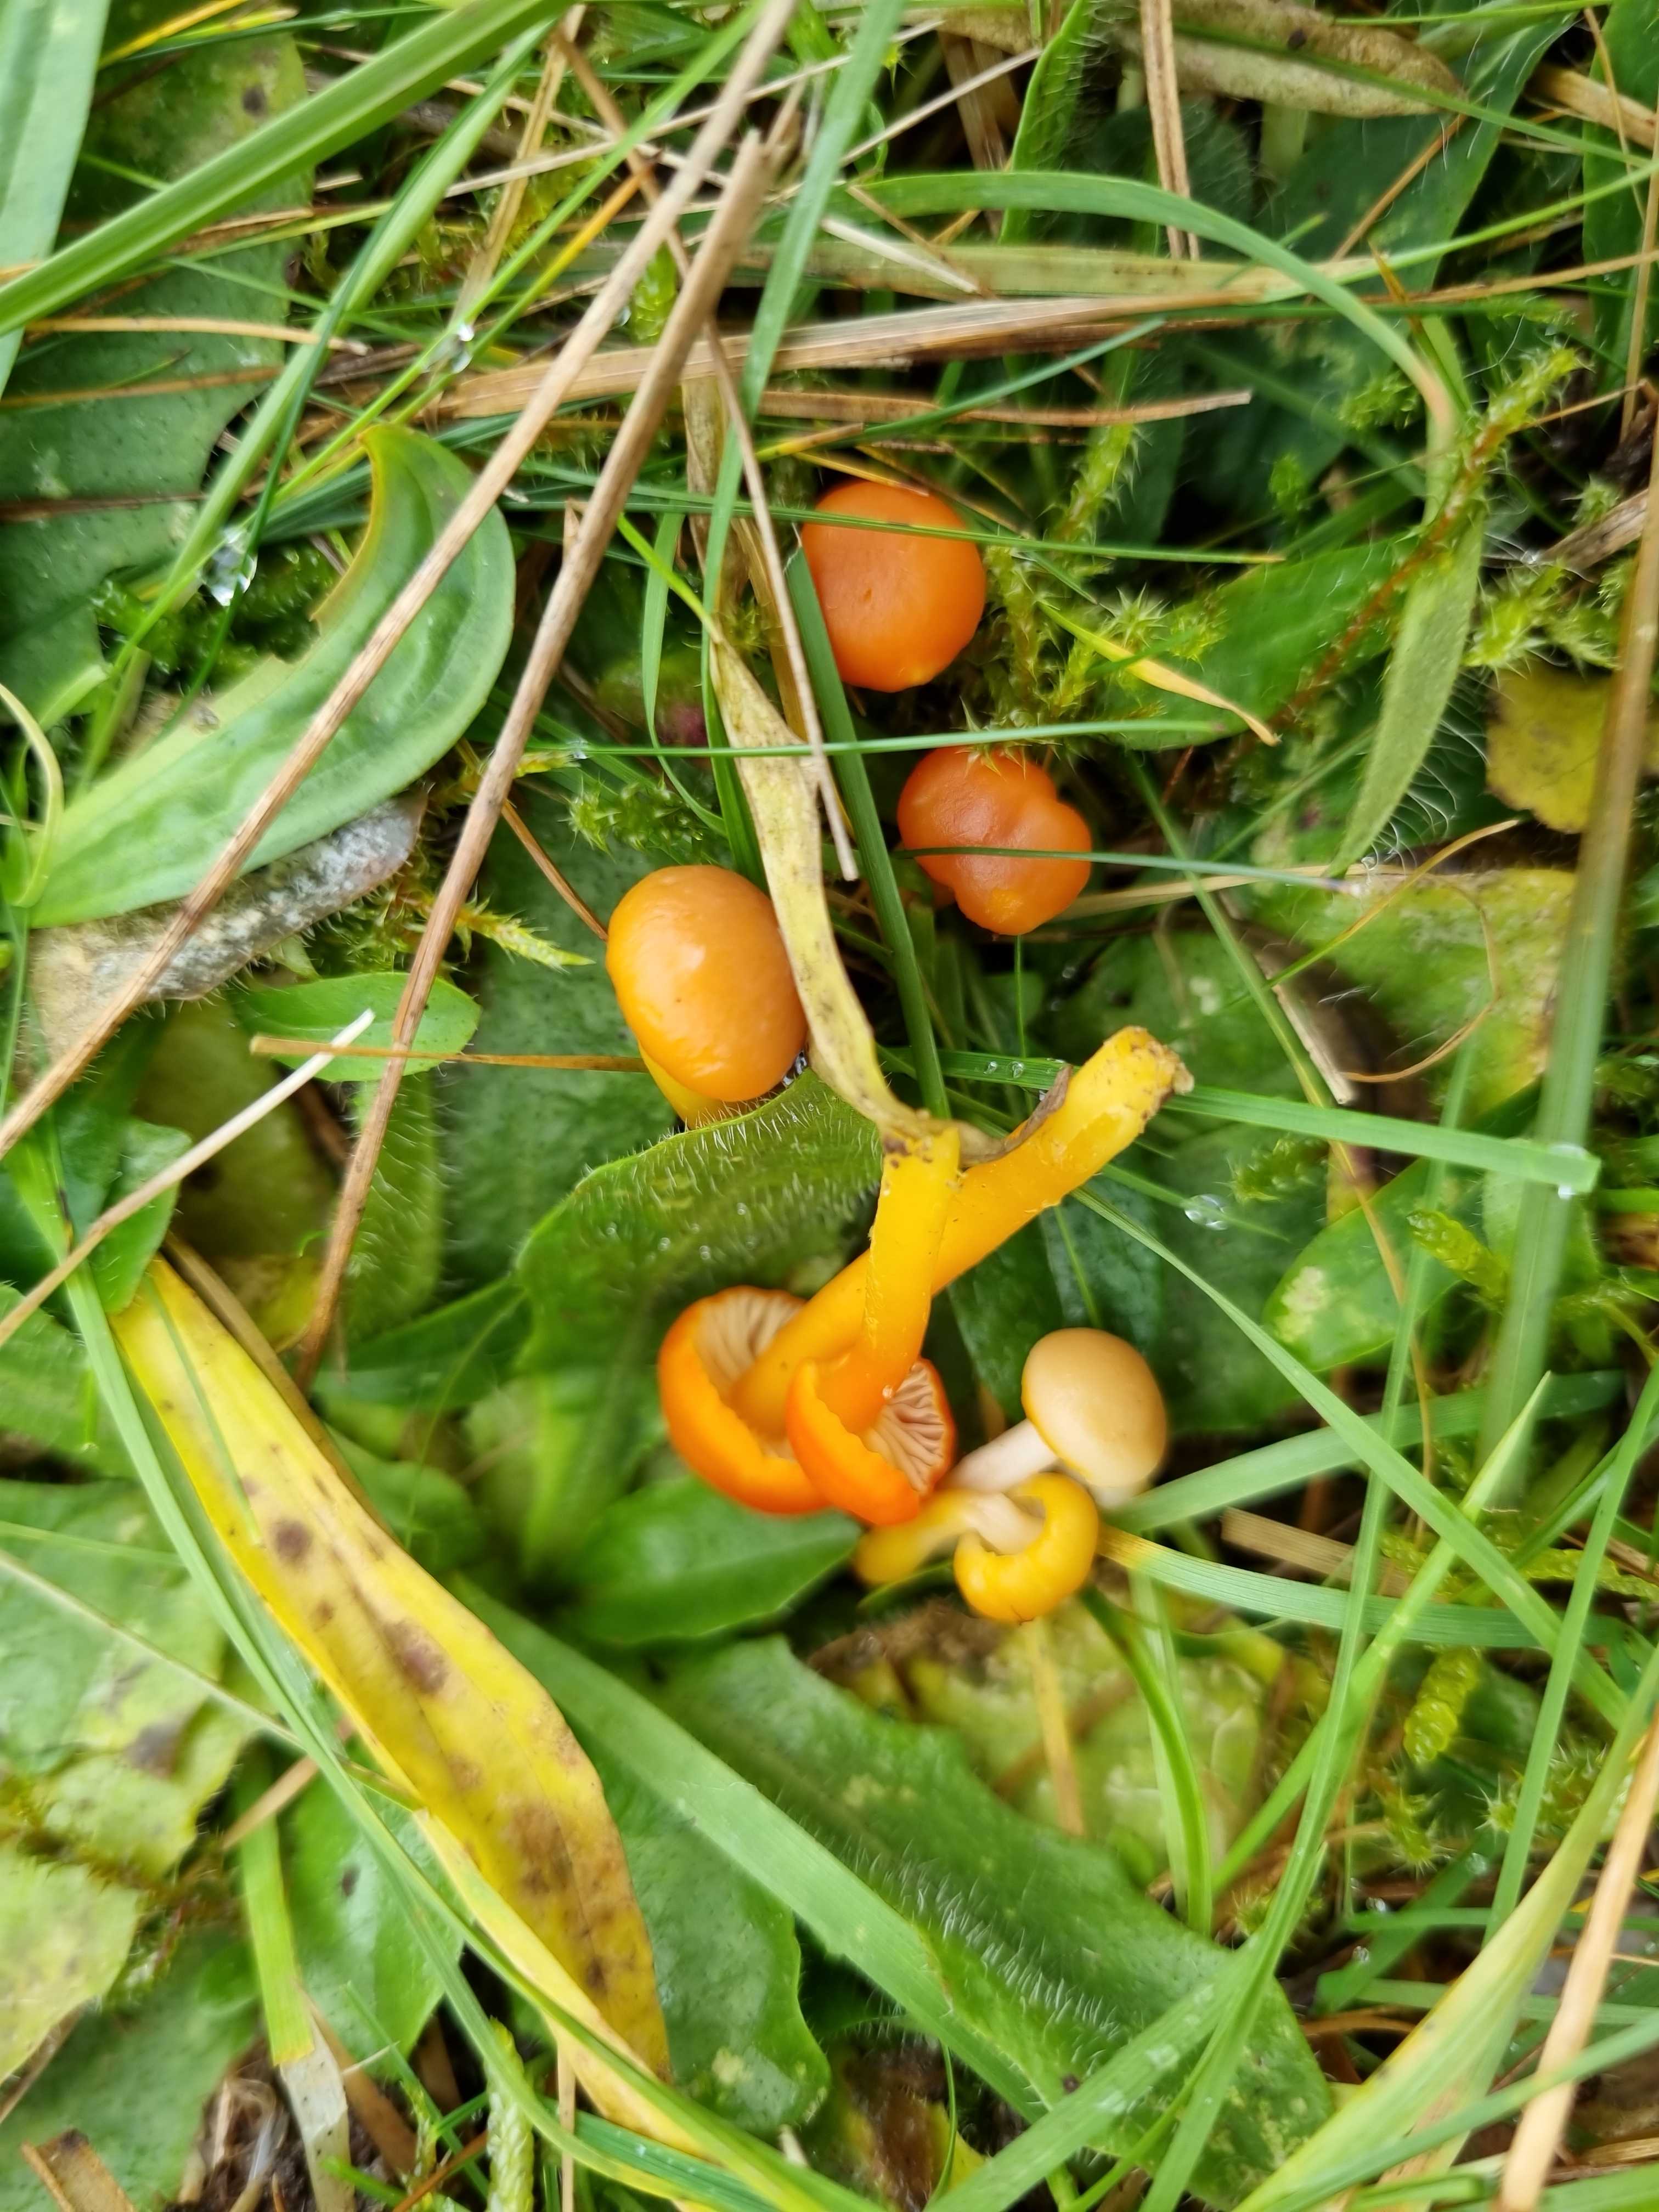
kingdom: Fungi
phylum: Basidiomycota
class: Agaricomycetes
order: Agaricales
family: Hygrophoraceae
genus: Hygrocybe
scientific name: Hygrocybe reidii
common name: honning-vokshat
